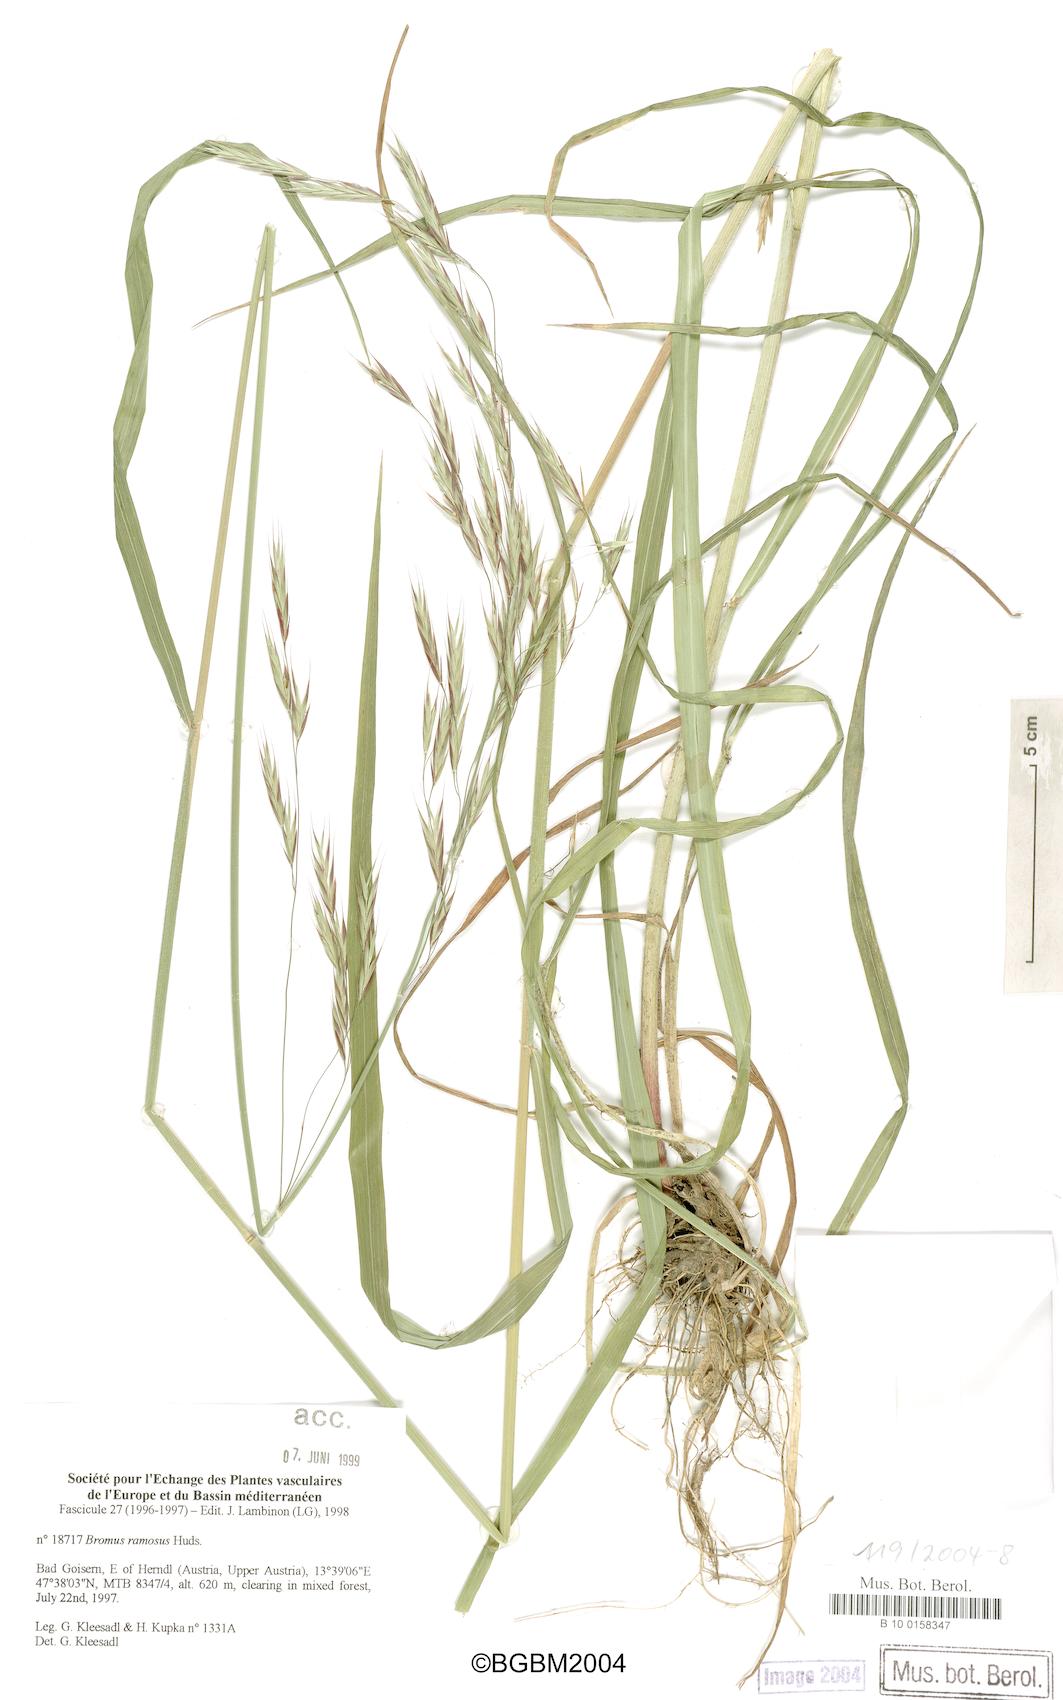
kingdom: Plantae
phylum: Tracheophyta
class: Liliopsida
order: Poales
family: Poaceae
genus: Bromus
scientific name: Bromus ramosus
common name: Hairy brome
